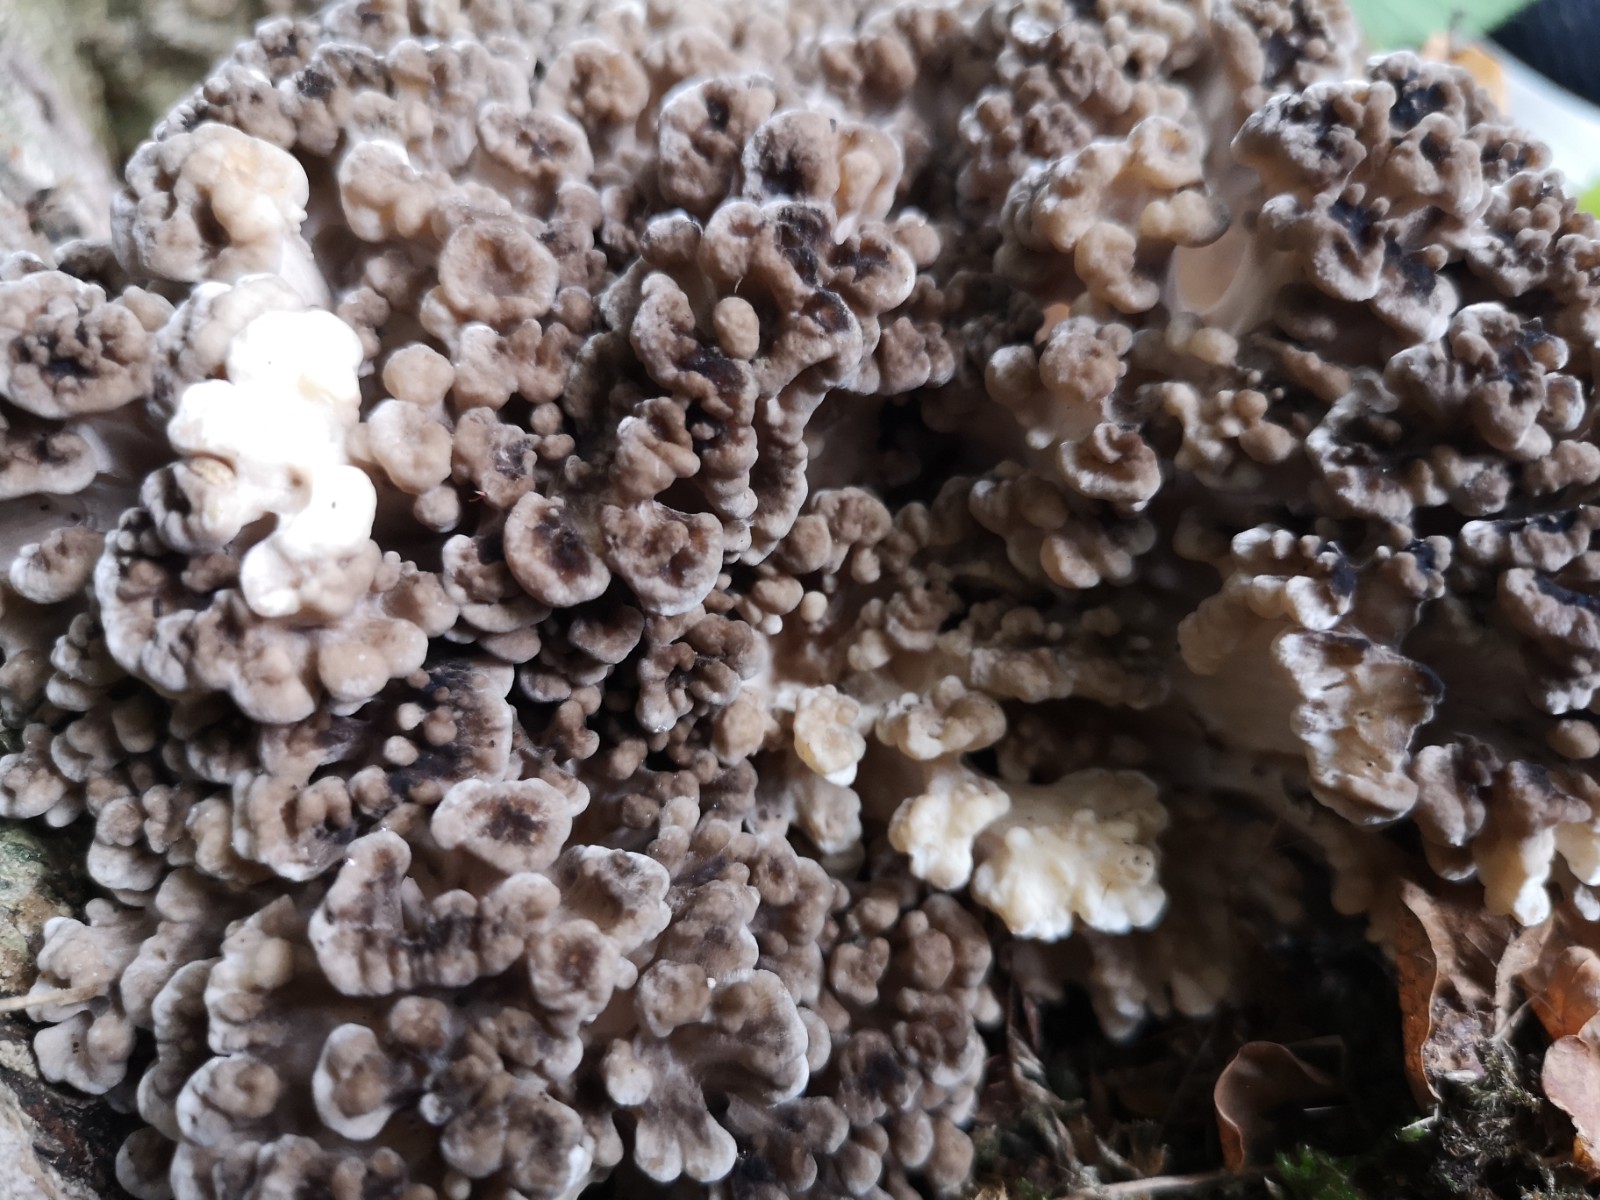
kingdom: Fungi
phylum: Basidiomycota
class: Agaricomycetes
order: Polyporales
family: Grifolaceae
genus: Grifola
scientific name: Grifola frondosa
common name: tueporesvamp
